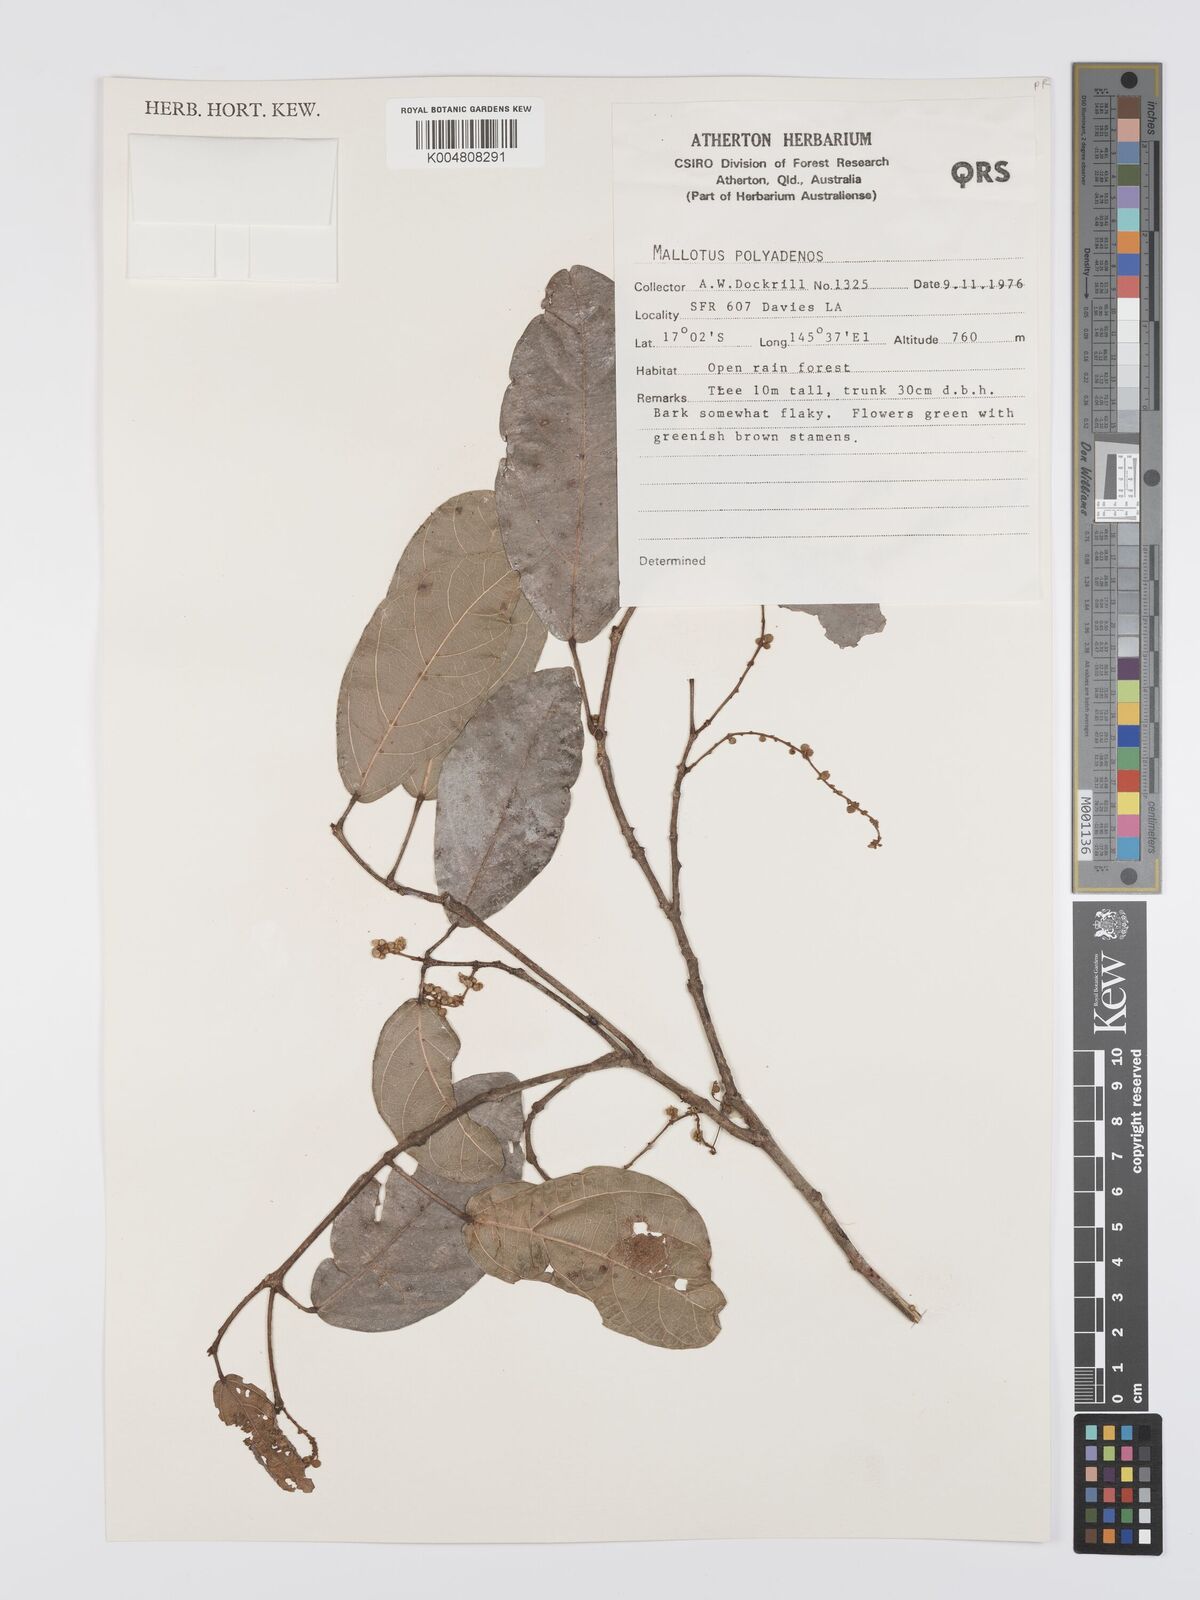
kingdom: Plantae
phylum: Tracheophyta
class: Magnoliopsida
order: Malpighiales
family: Euphorbiaceae
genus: Mallotus
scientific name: Mallotus polyadenos
